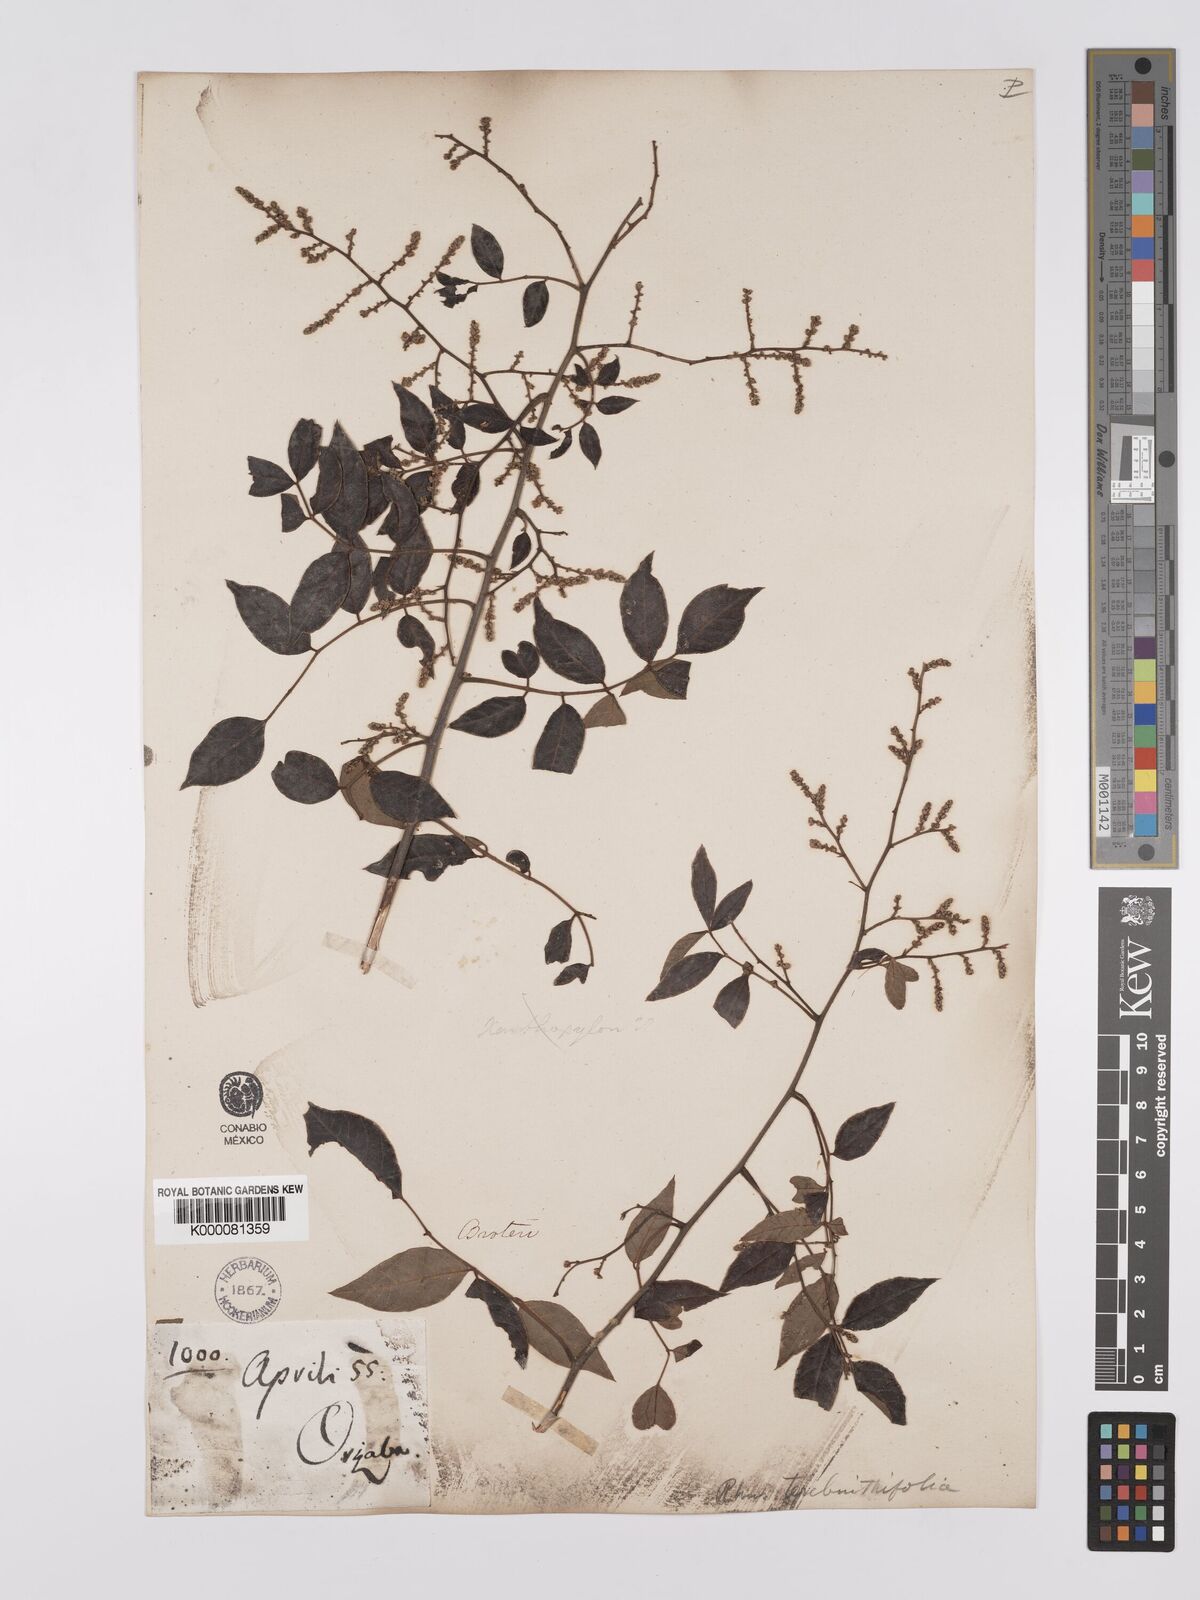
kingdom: Plantae
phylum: Tracheophyta
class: Magnoliopsida
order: Sapindales
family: Anacardiaceae
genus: Rhus
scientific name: Rhus
